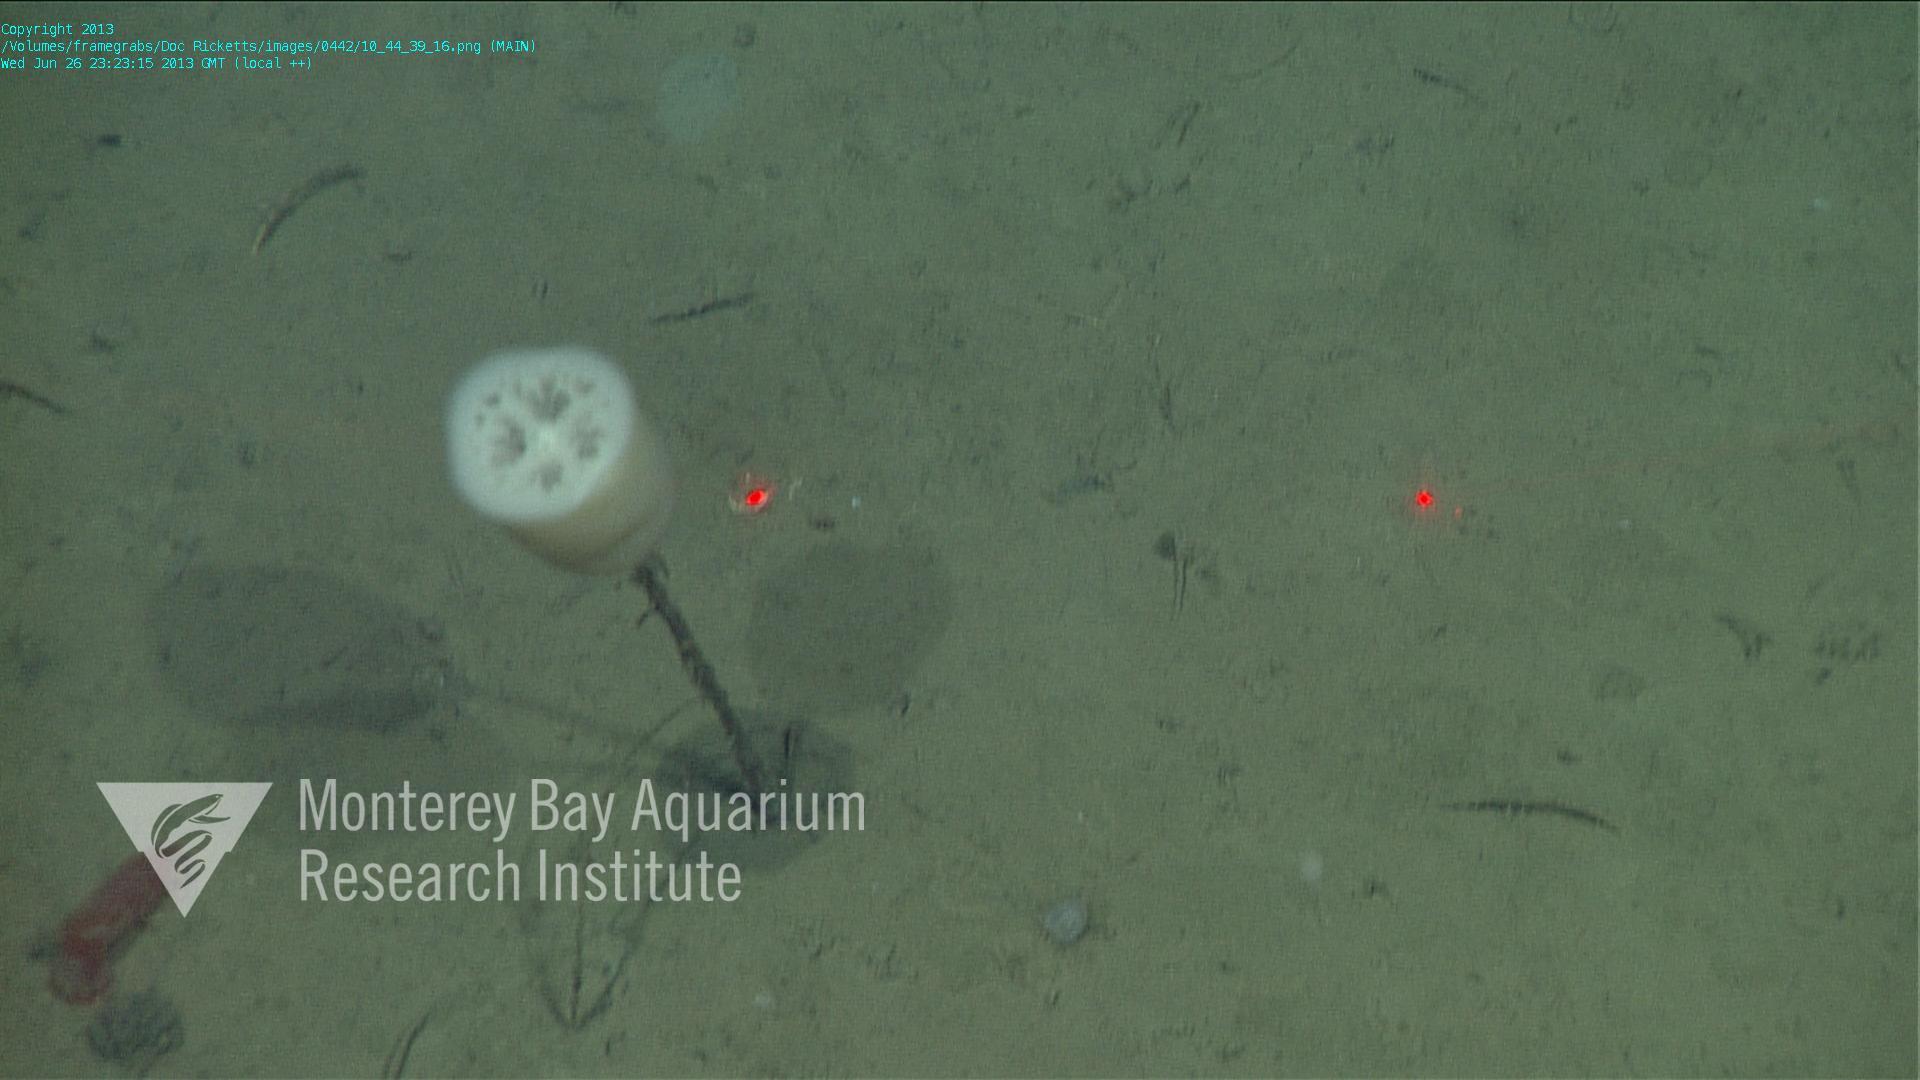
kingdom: Animalia
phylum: Porifera
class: Hexactinellida
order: Amphidiscosida
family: Hyalonematidae
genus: Hyalonema
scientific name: Hyalonema bianchoratum
